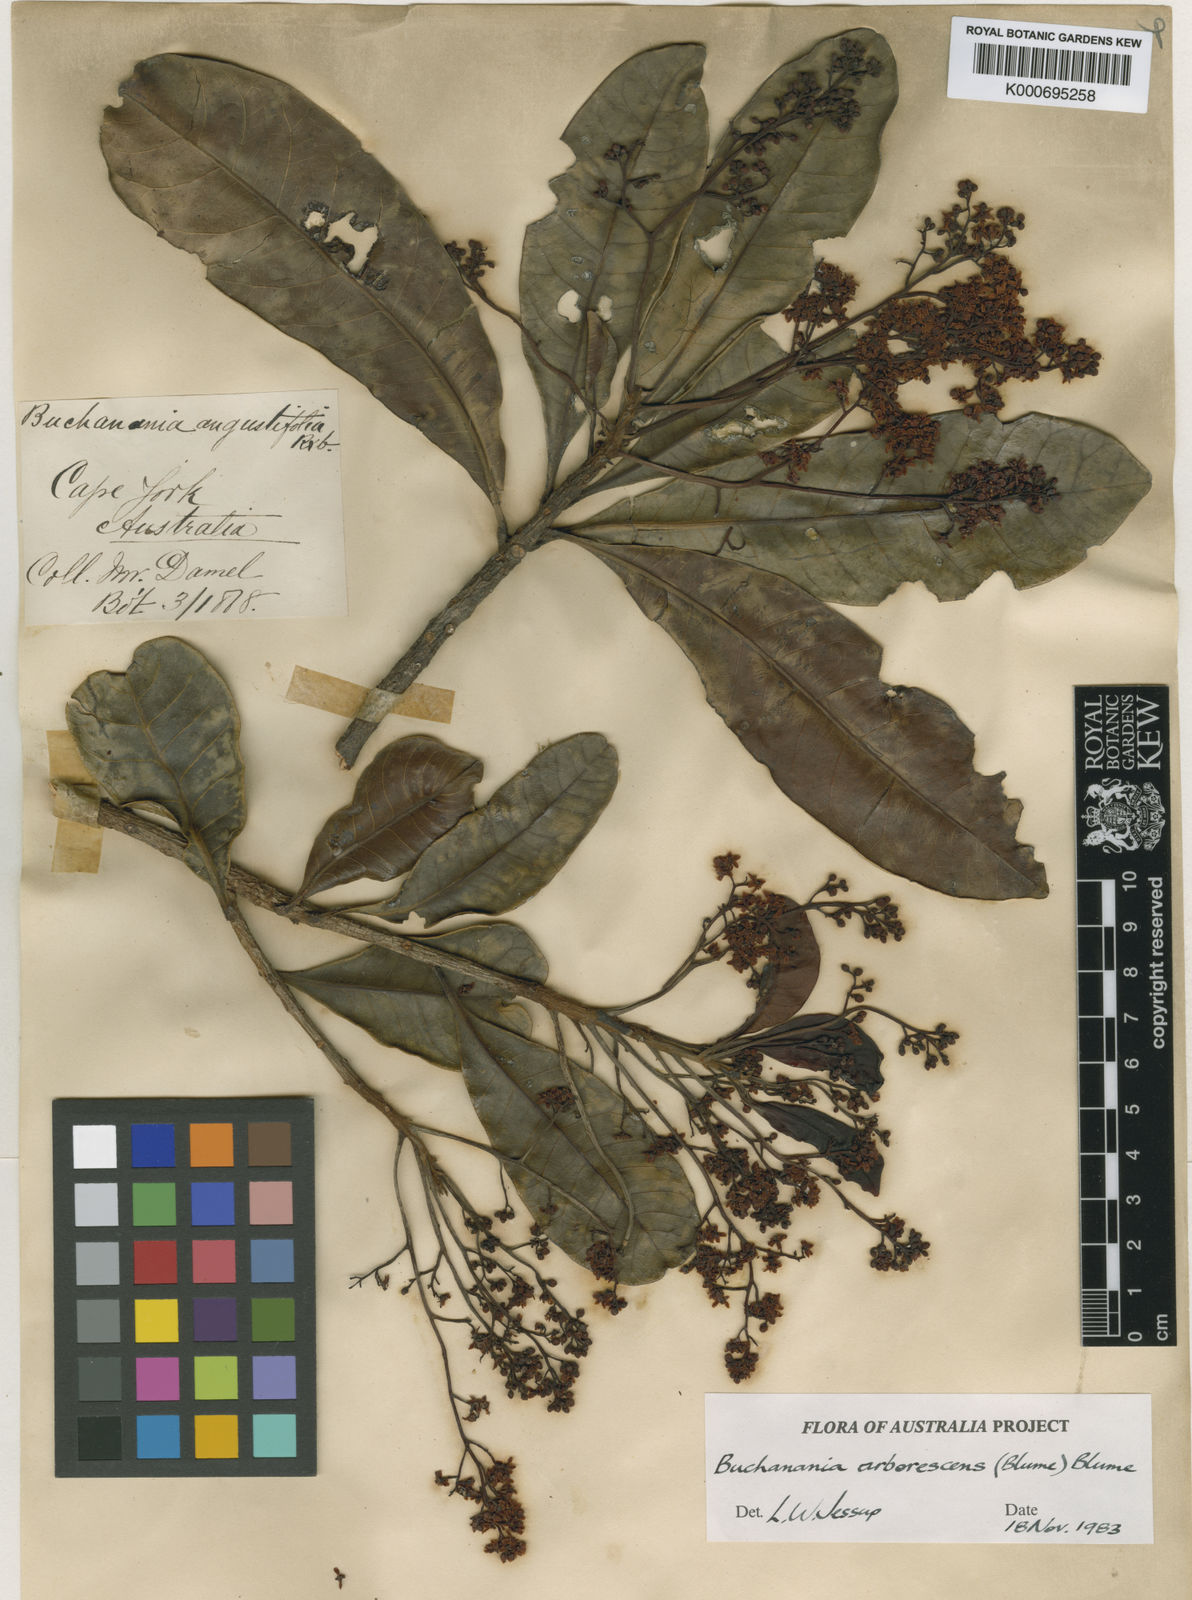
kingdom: Plantae
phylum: Tracheophyta
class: Magnoliopsida
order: Sapindales
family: Anacardiaceae
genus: Buchanania
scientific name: Buchanania arborescens
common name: Sparrow’s mango
